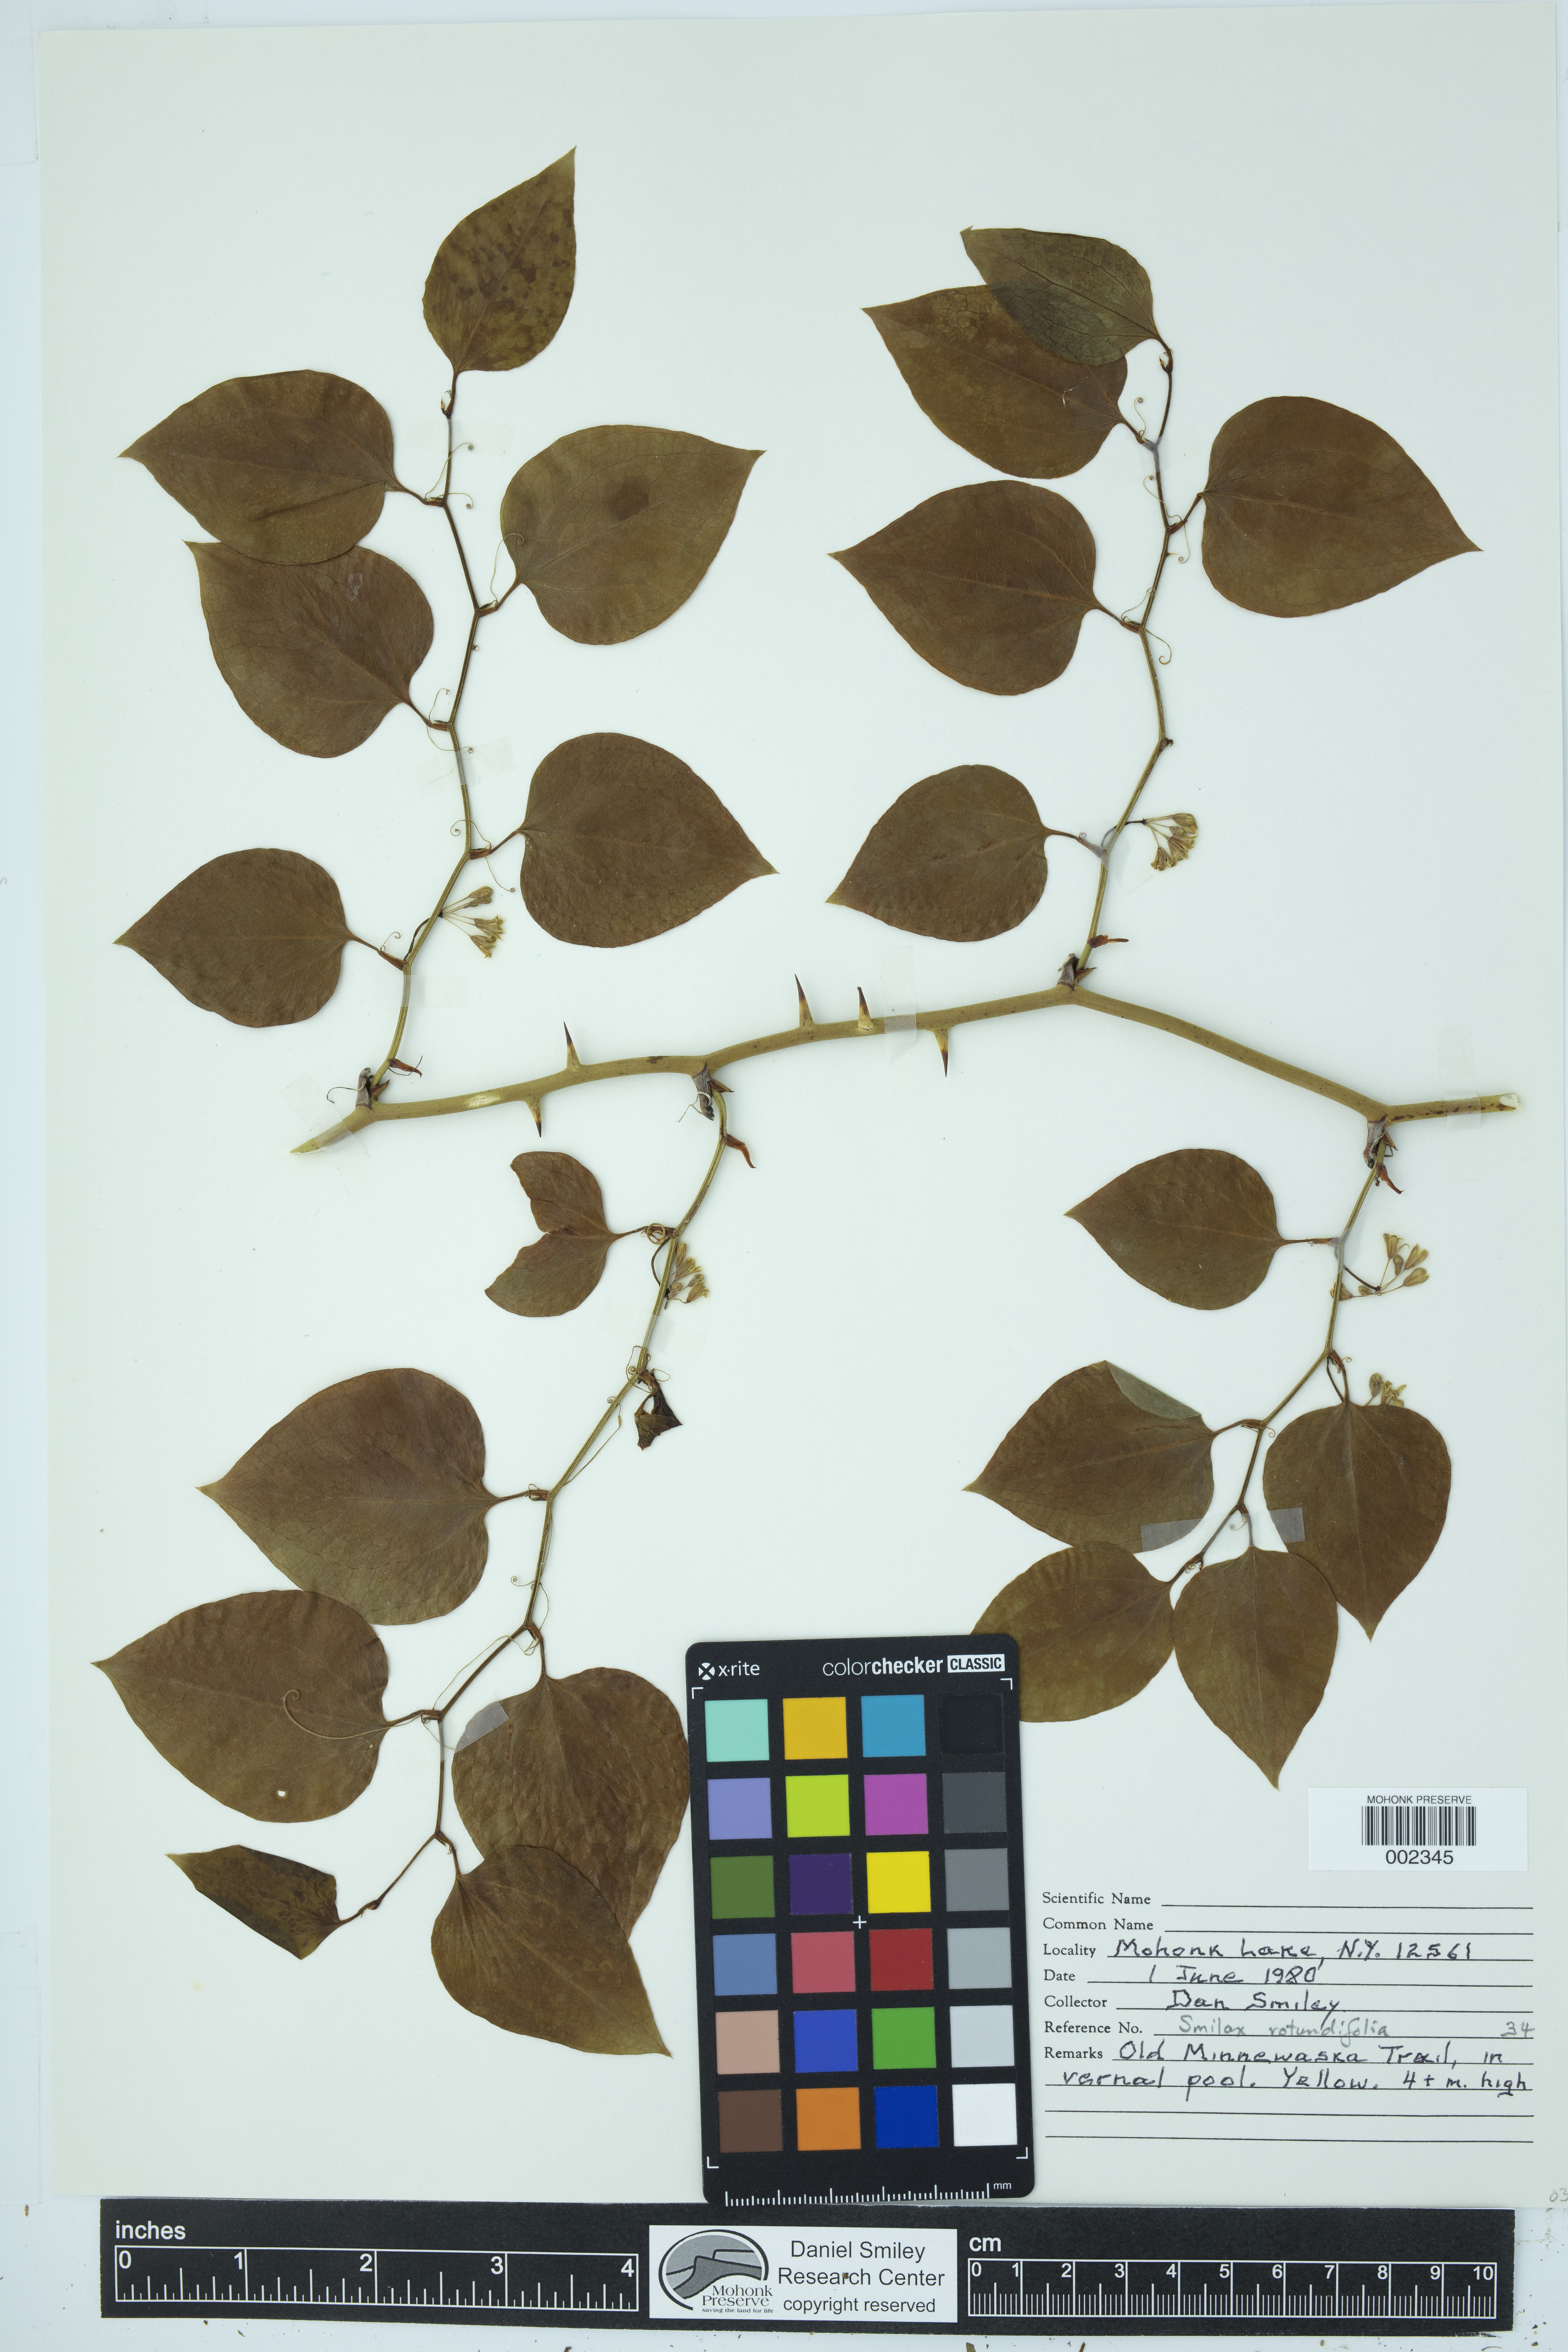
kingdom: Plantae
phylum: Tracheophyta
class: Liliopsida
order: Liliales
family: Smilacaceae
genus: Smilax
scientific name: Smilax rotundifolia
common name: Bullbriar
